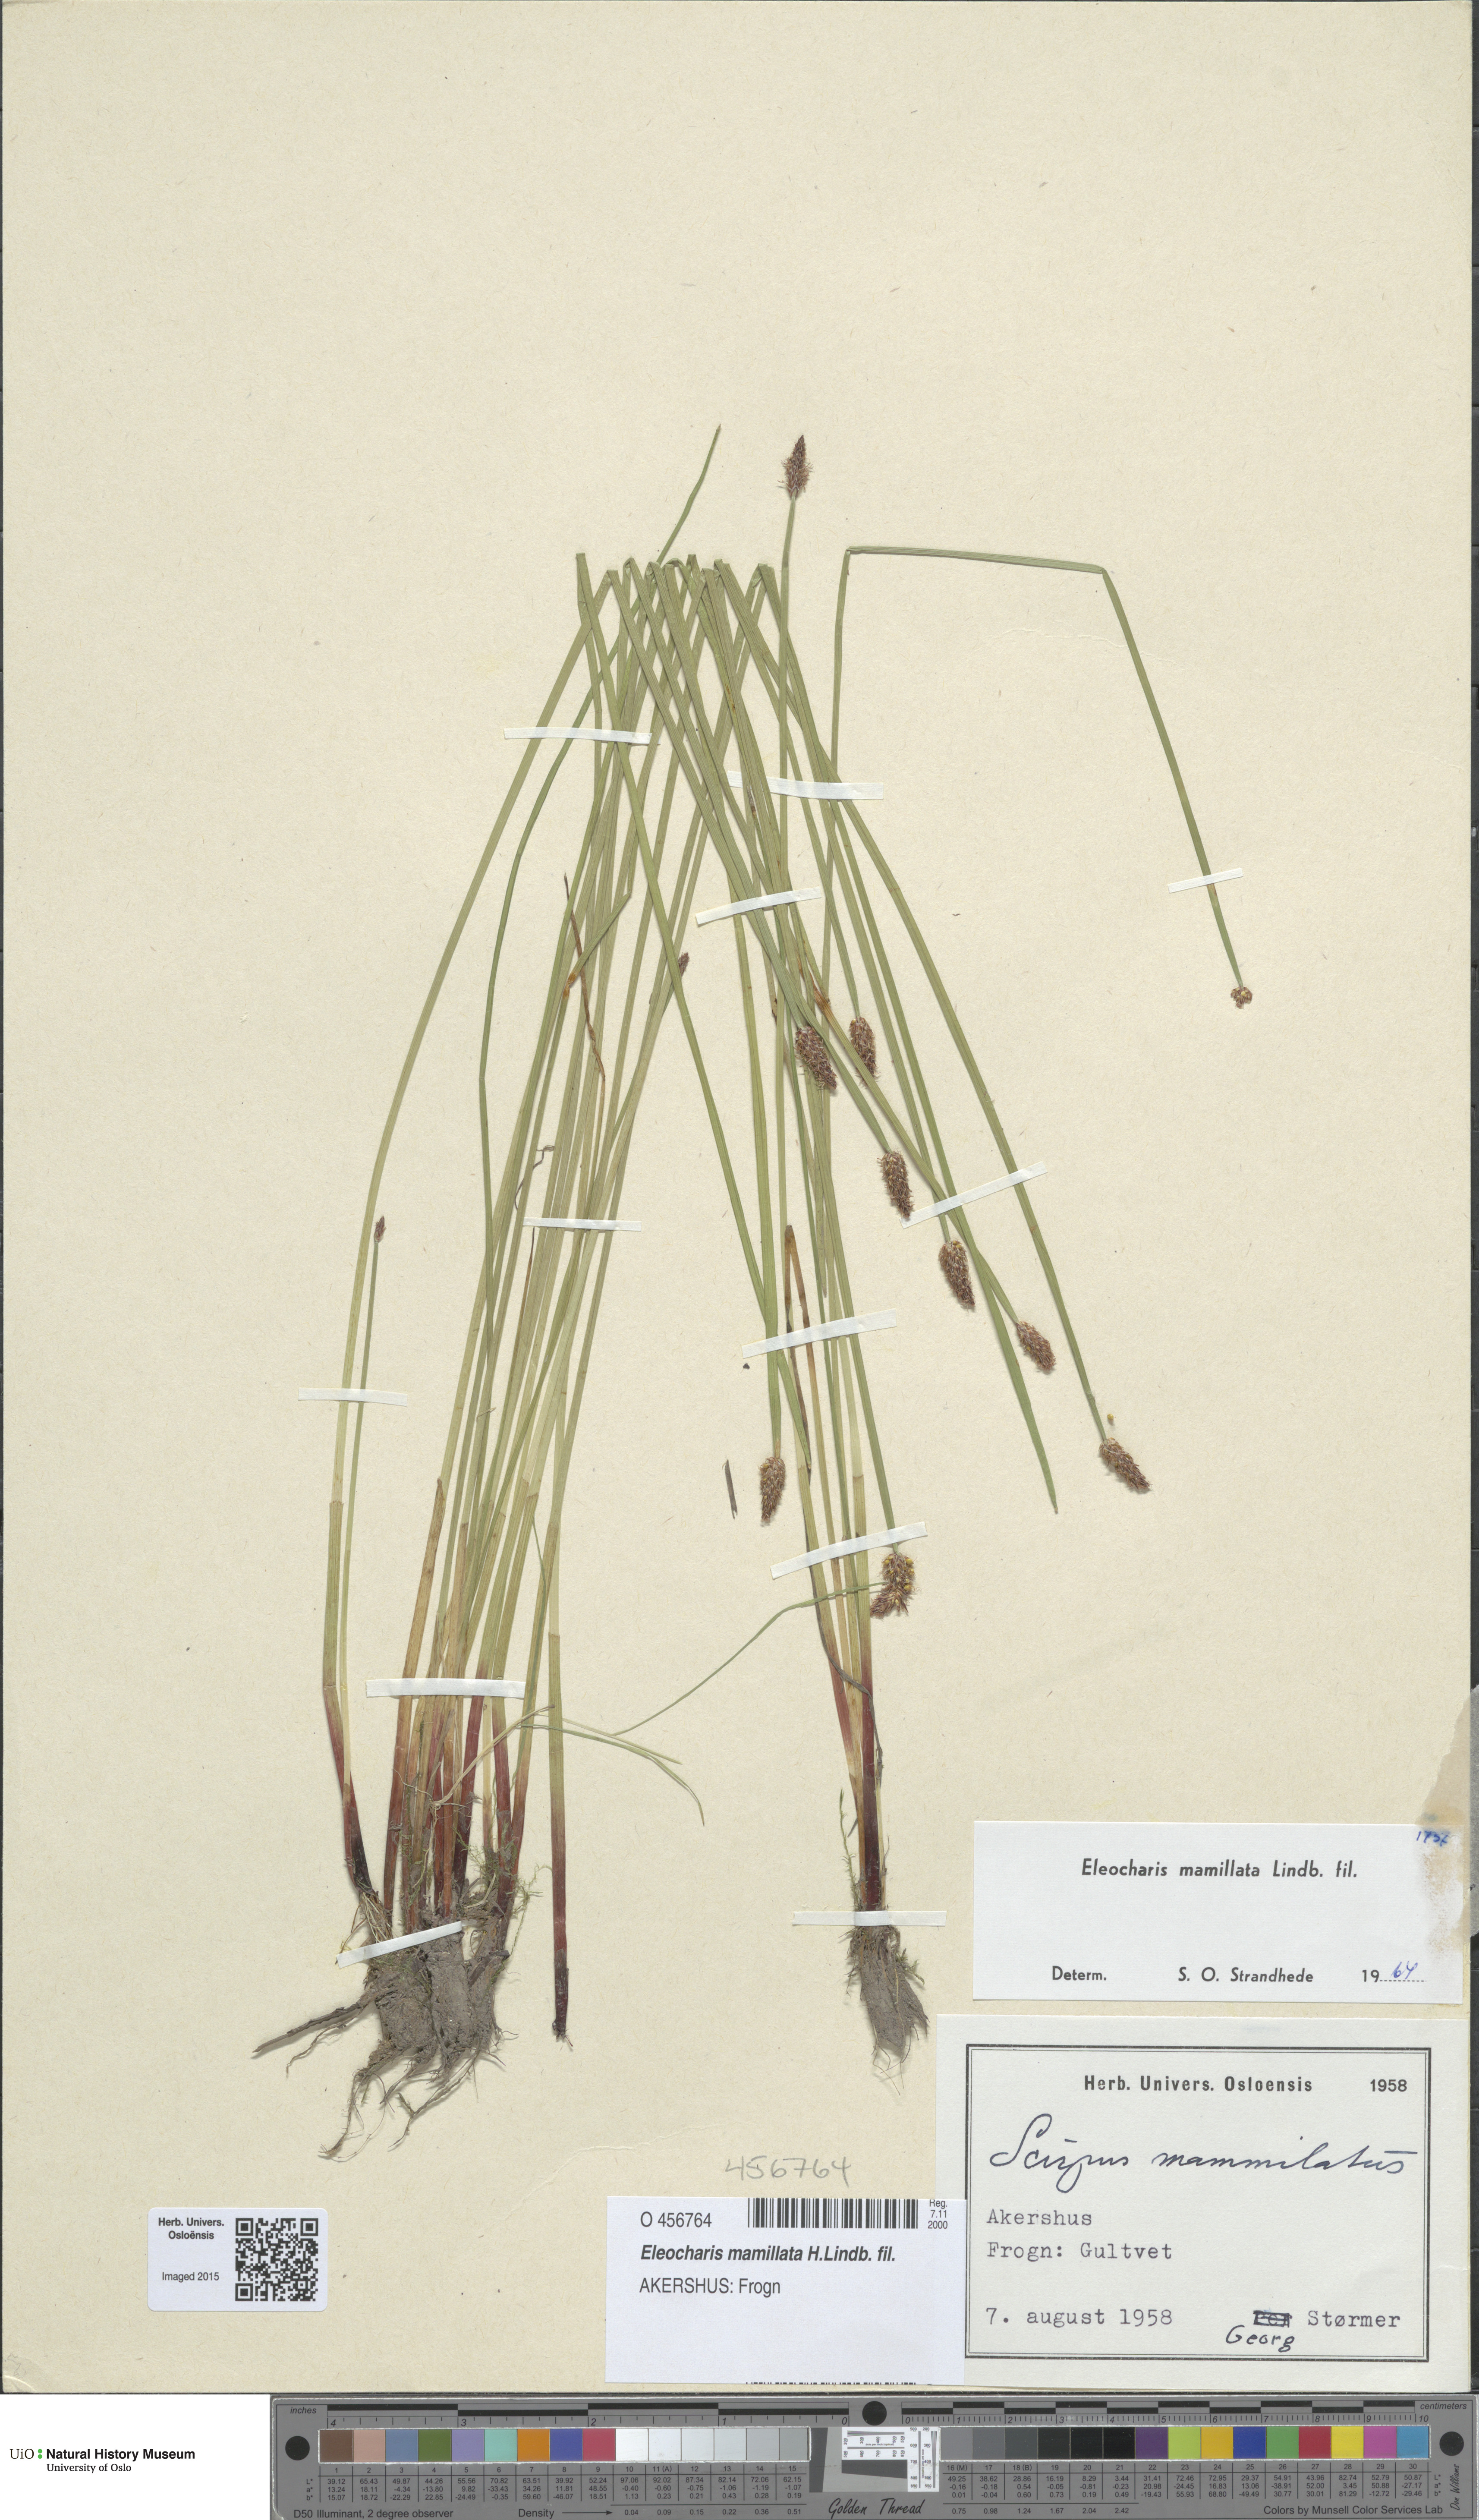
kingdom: Plantae
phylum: Tracheophyta
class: Liliopsida
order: Poales
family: Cyperaceae
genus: Eleocharis
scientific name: Eleocharis mamillata
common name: Northern spike-rush
